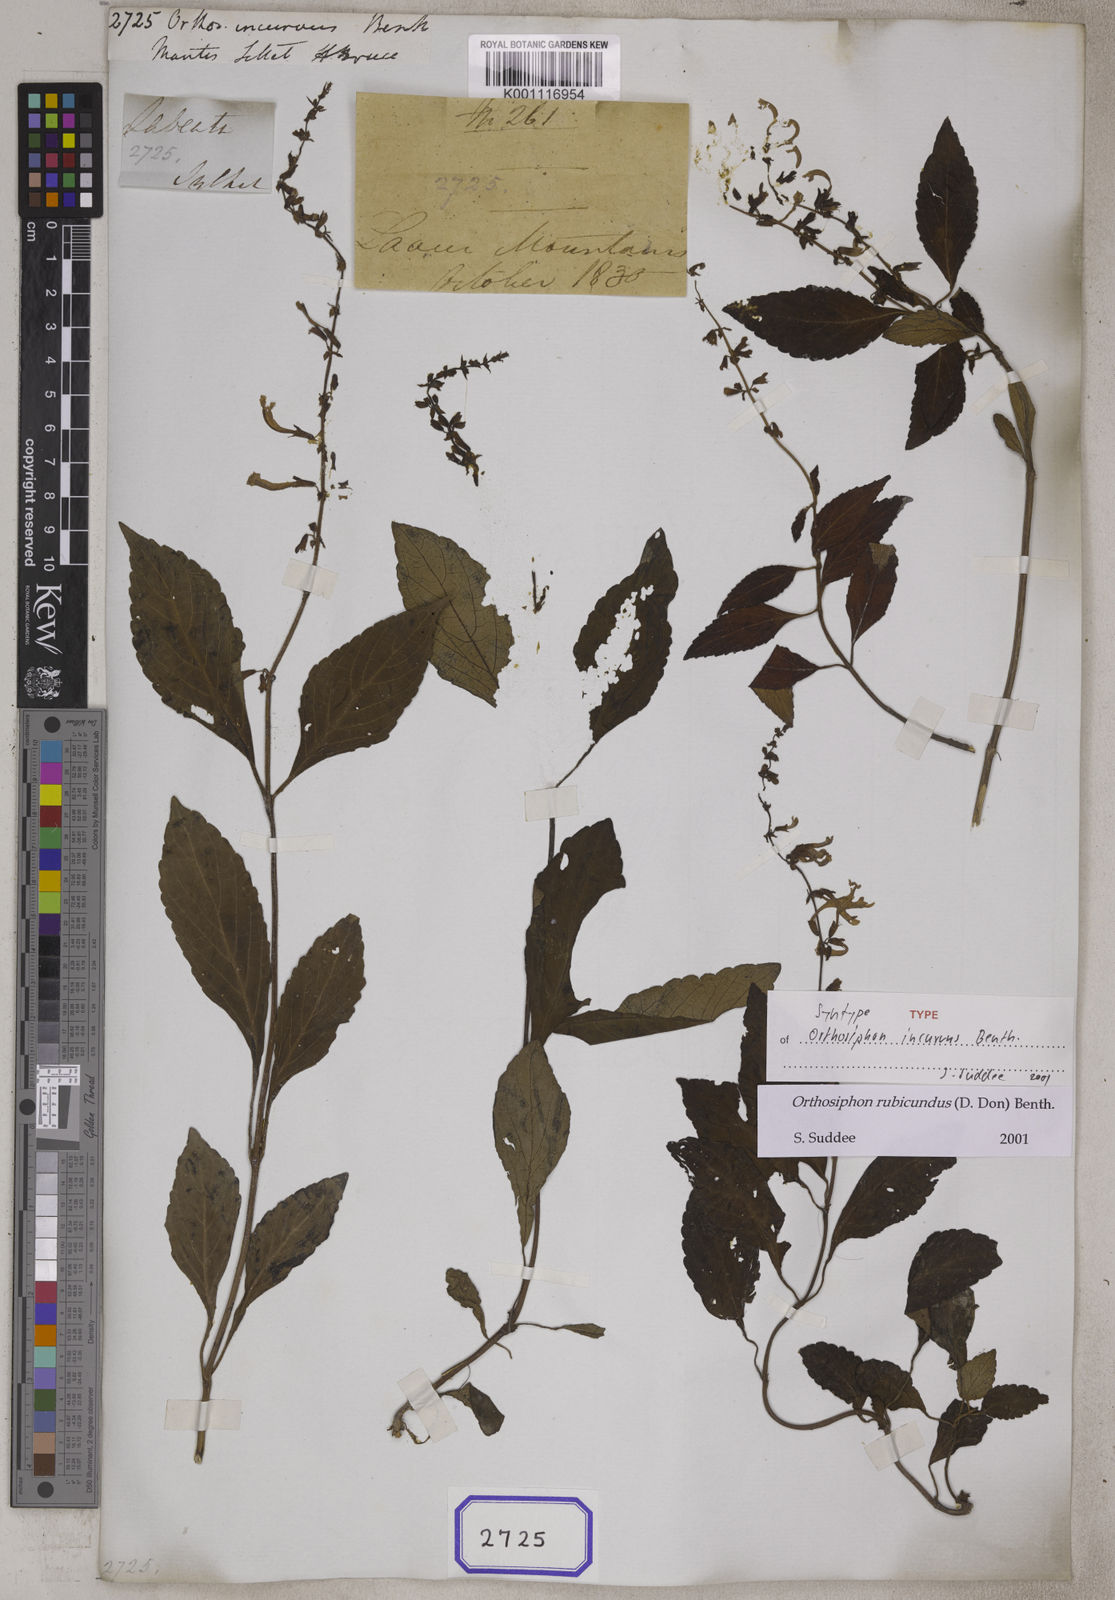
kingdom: Plantae
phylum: Tracheophyta
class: Magnoliopsida
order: Lamiales
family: Lamiaceae
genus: Orthosiphon
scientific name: Orthosiphon incurvus
